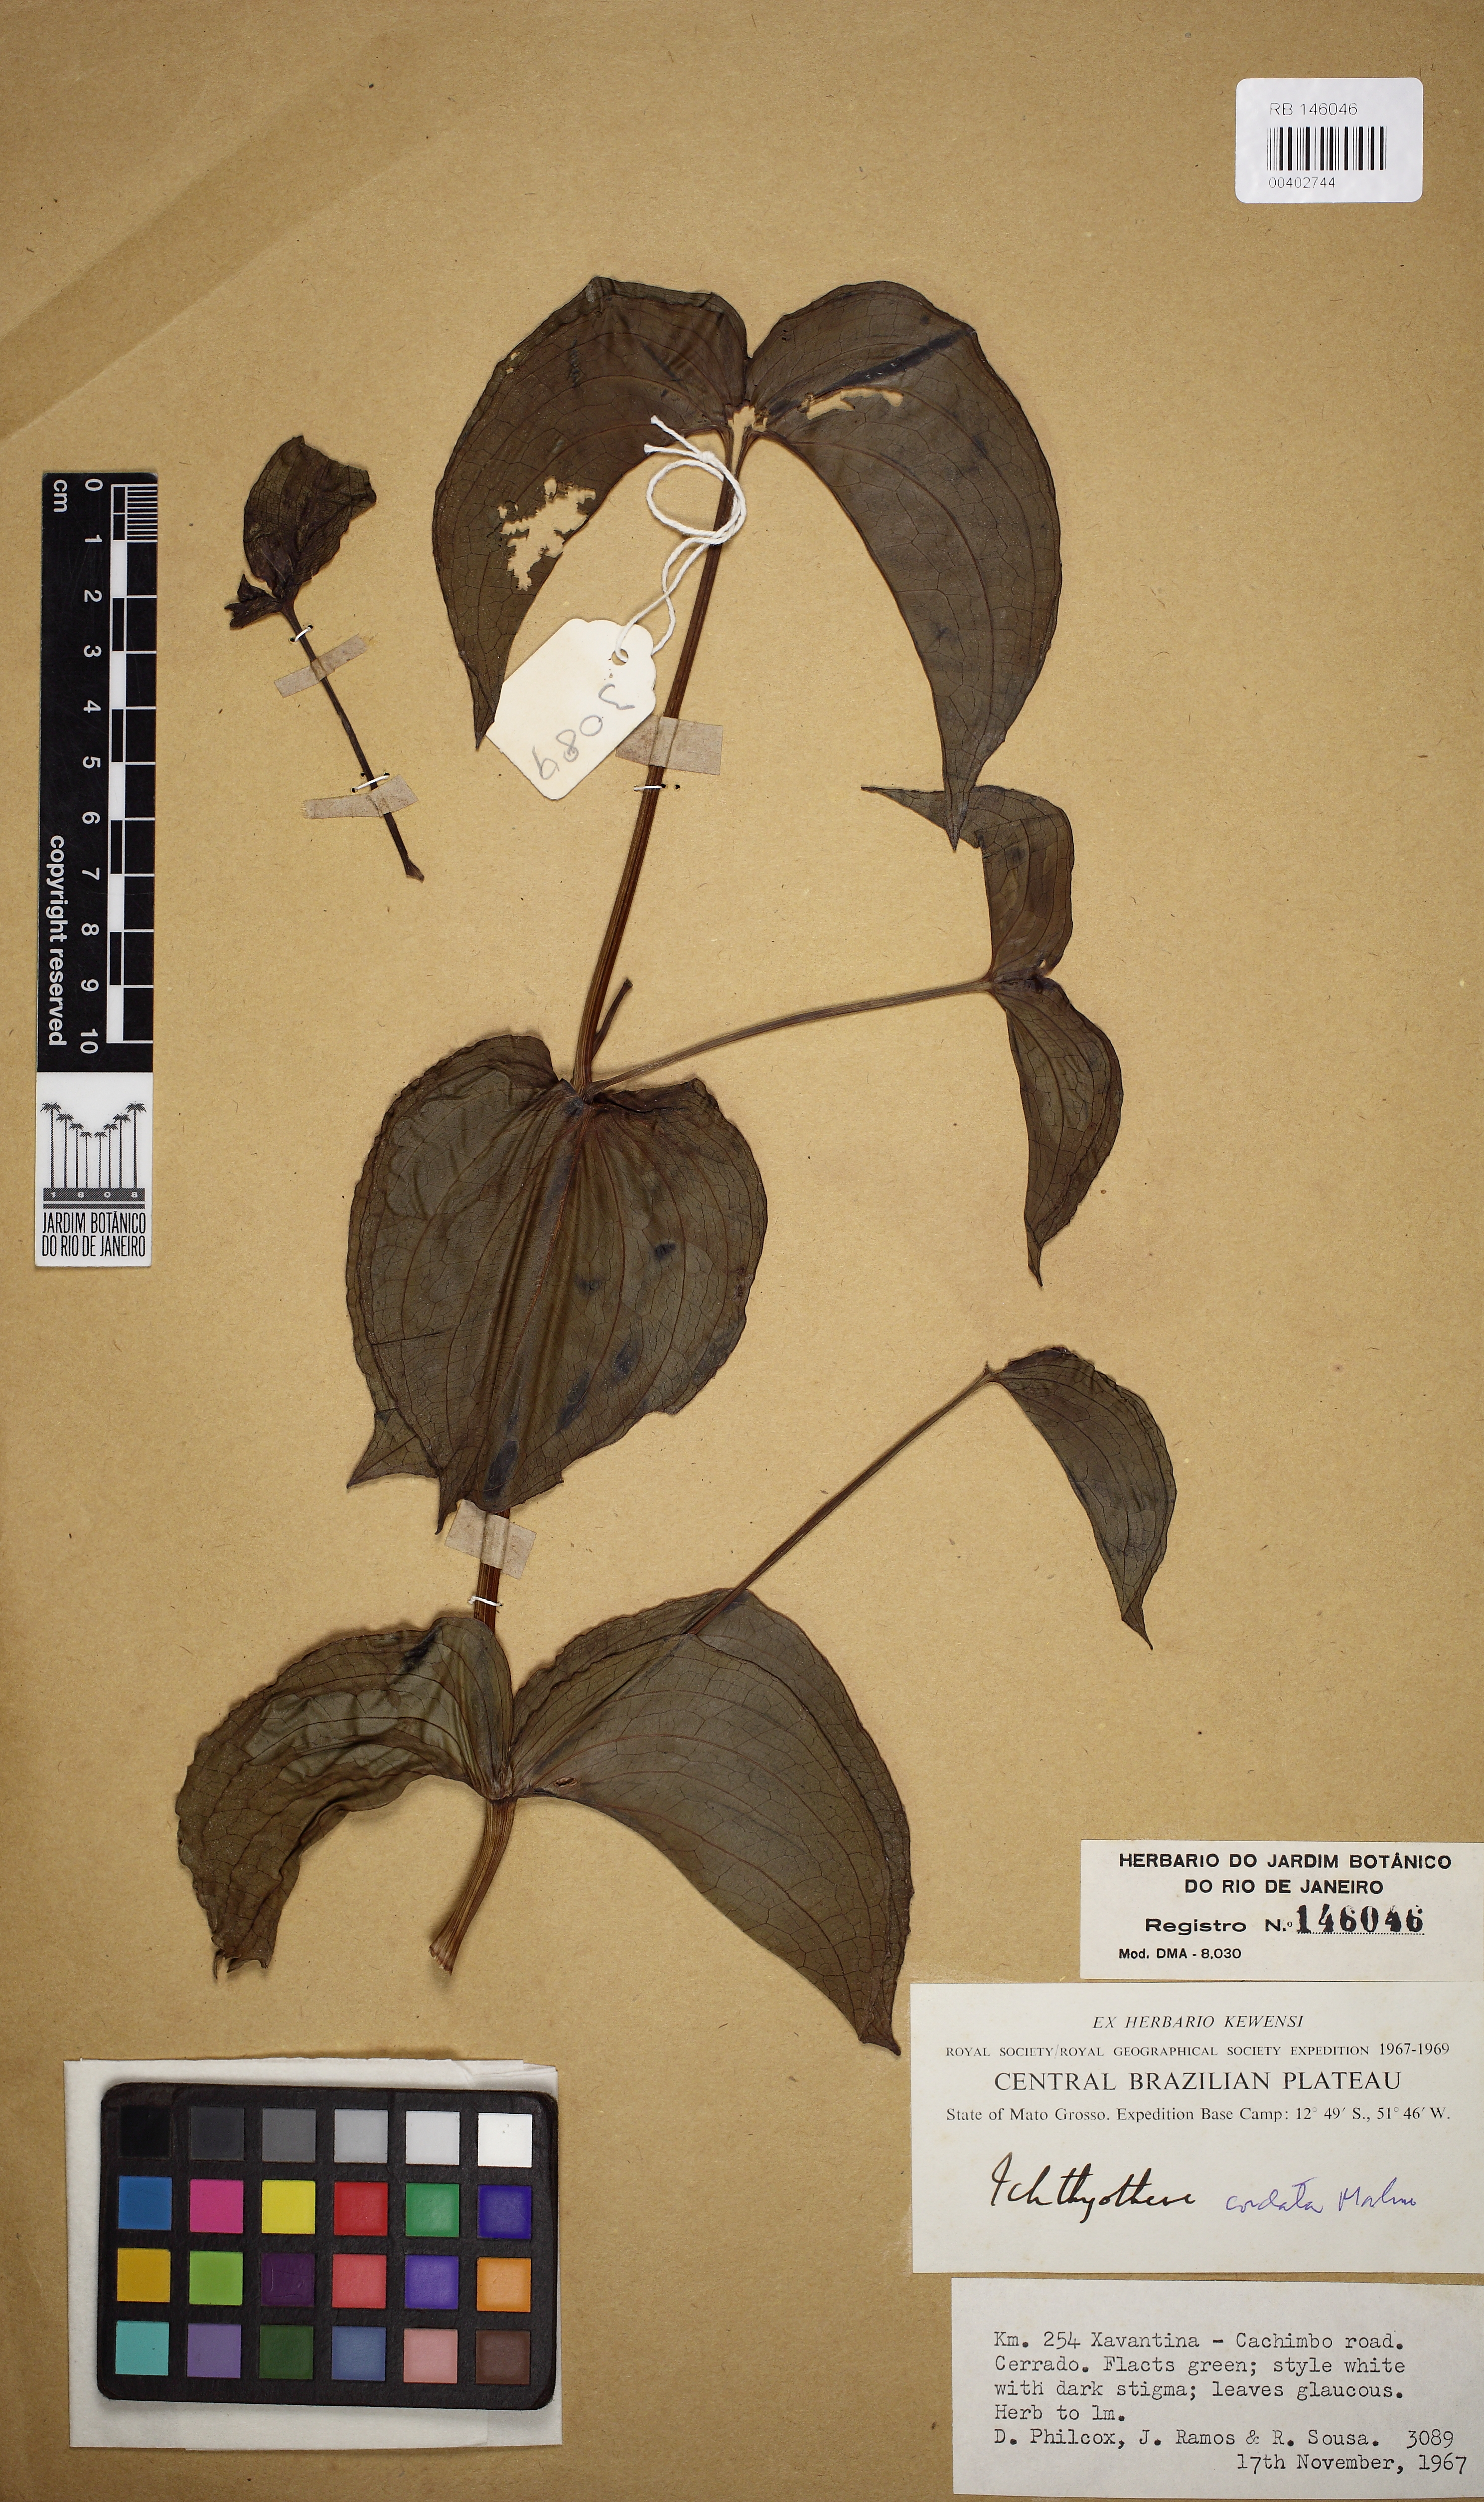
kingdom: Plantae
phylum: Tracheophyta
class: Magnoliopsida
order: Asterales
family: Asteraceae
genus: Ichthyothere
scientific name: Ichthyothere cordata
